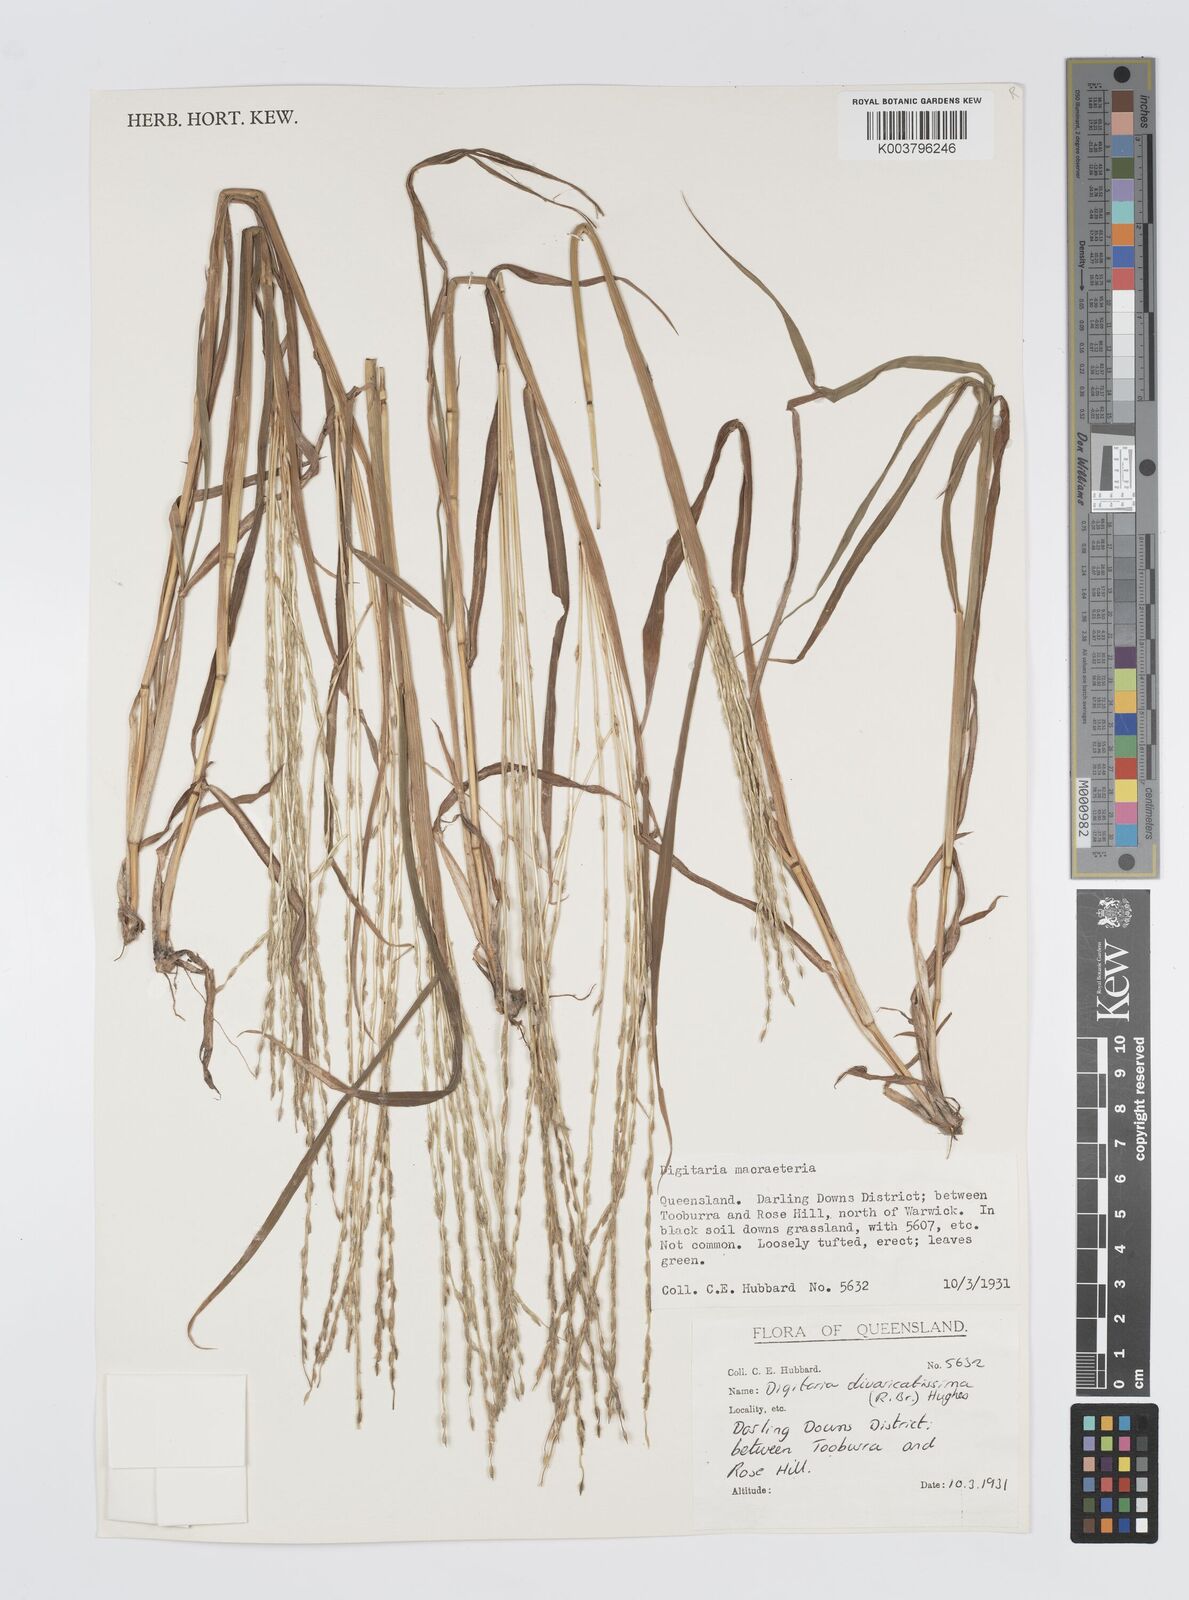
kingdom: Plantae
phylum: Tracheophyta
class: Liliopsida
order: Poales
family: Poaceae
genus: Digitaria
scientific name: Digitaria divaricatissima
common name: Crabgrass
